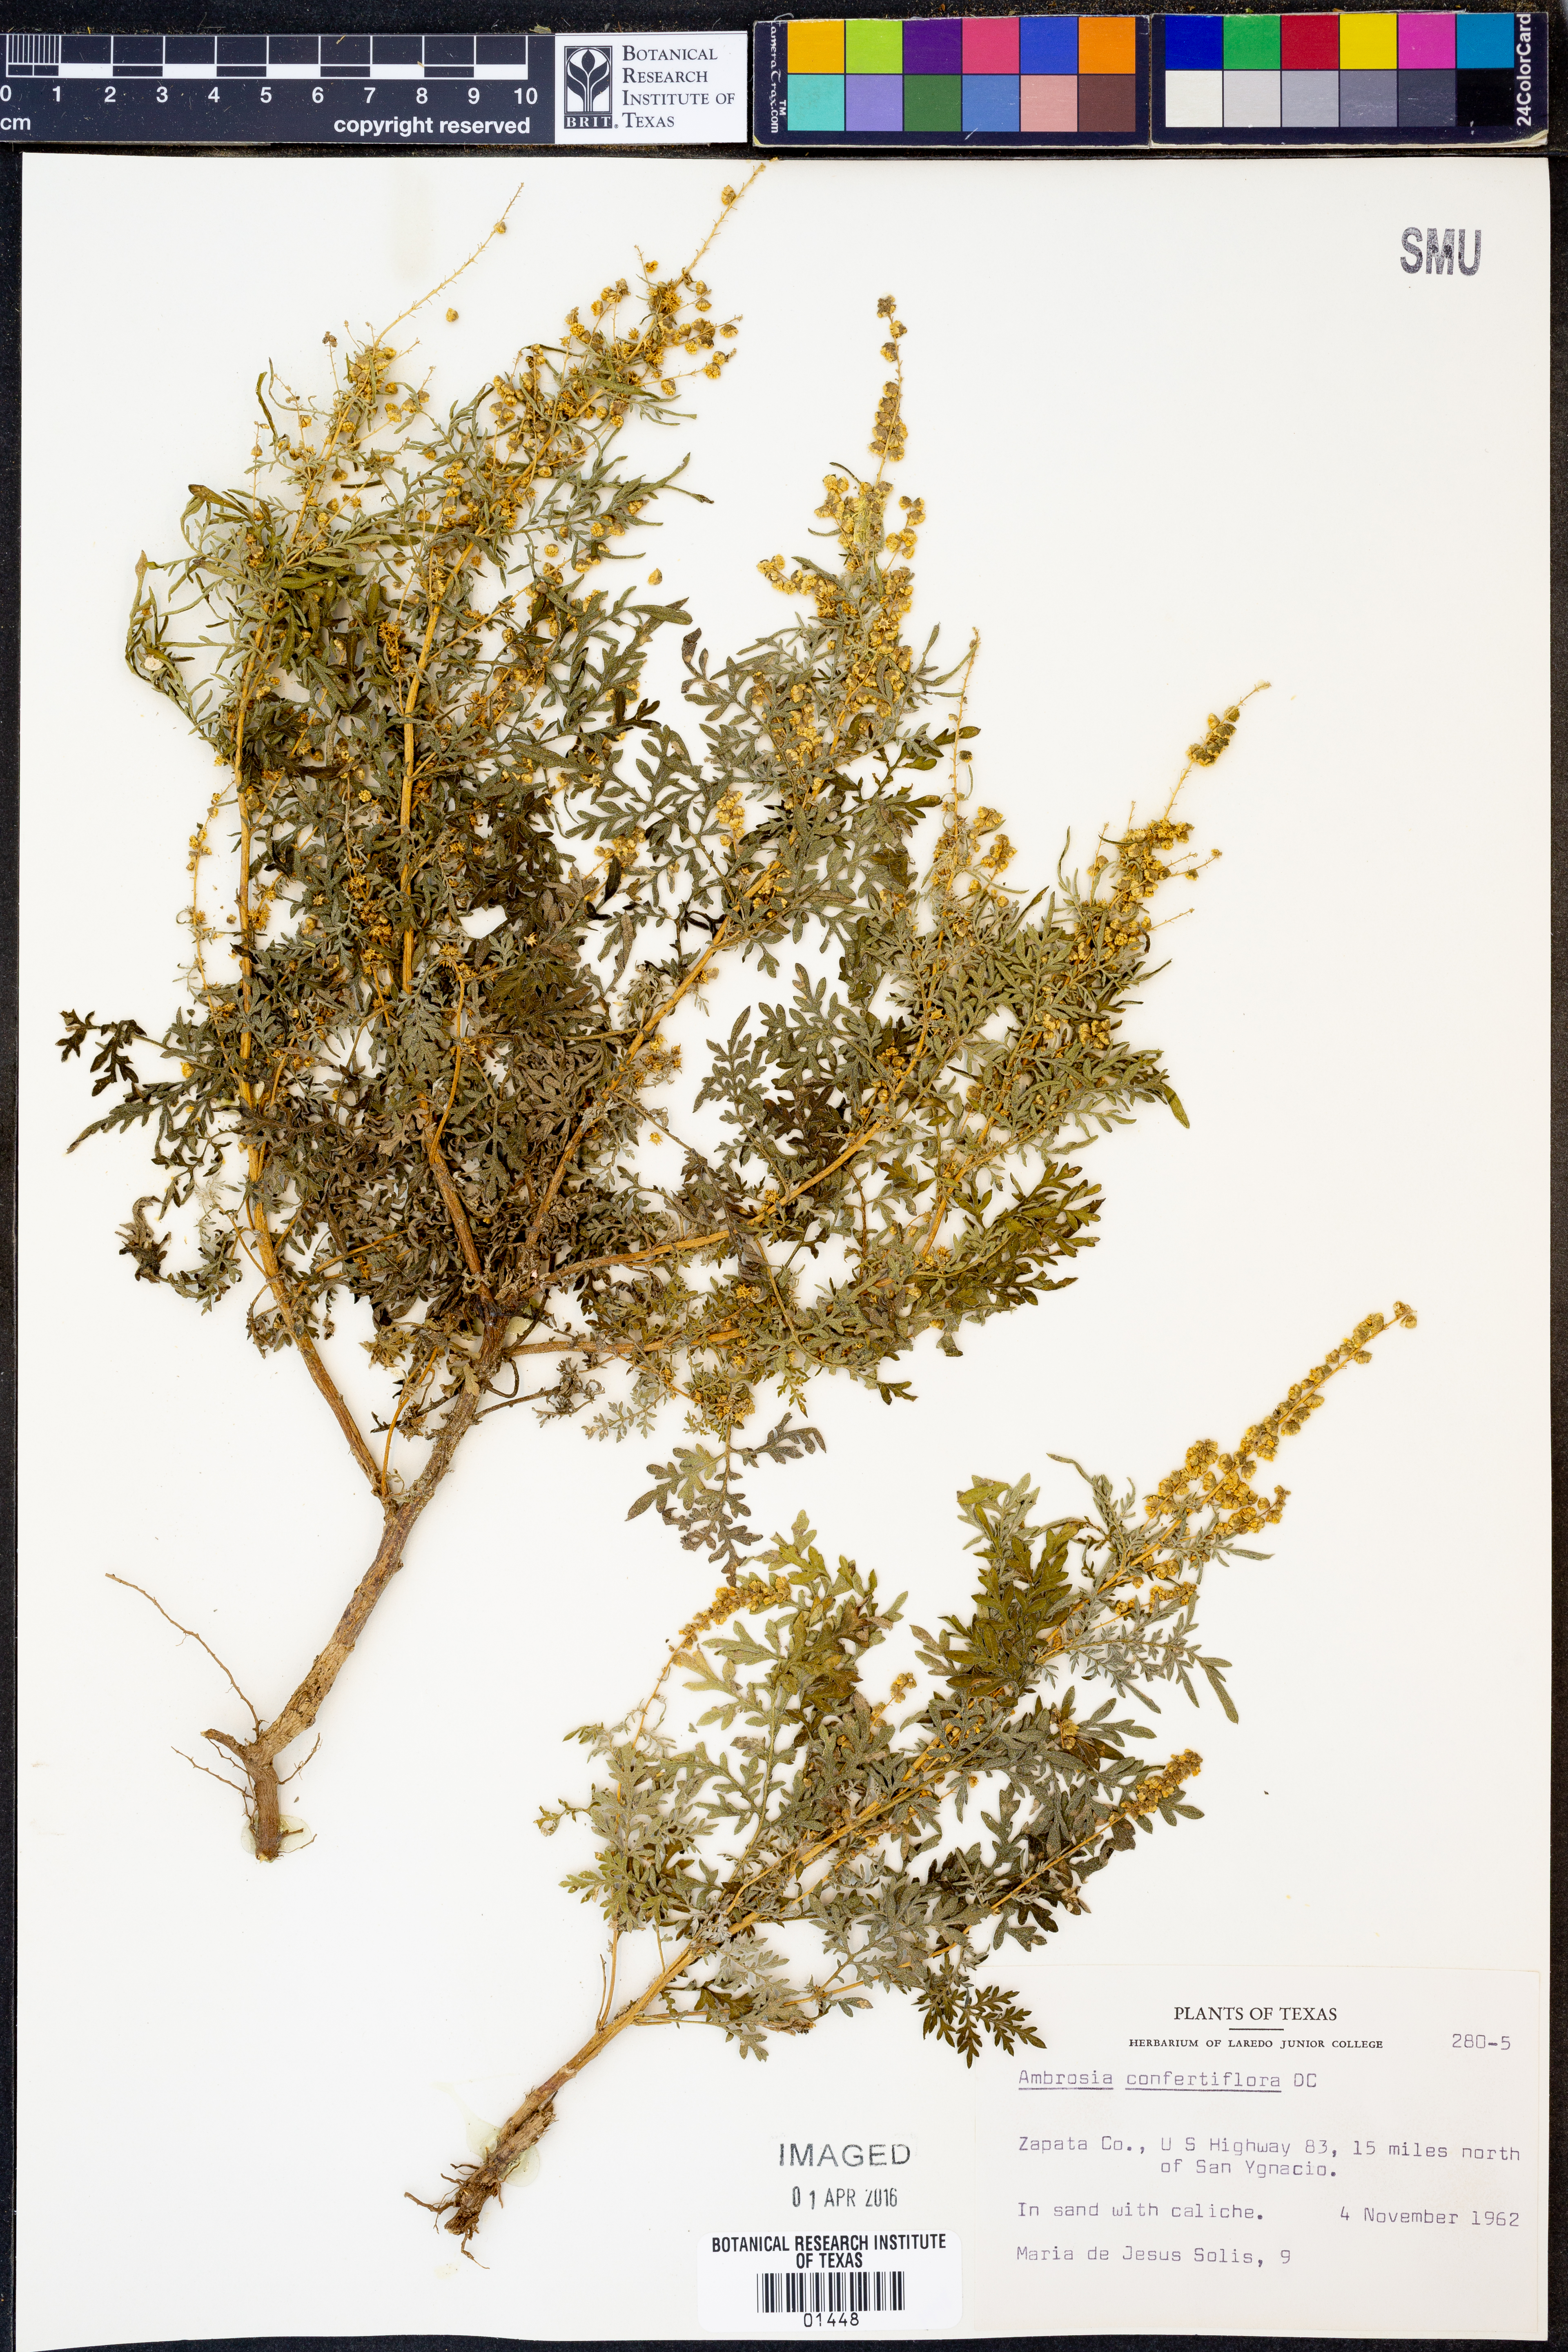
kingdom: Plantae
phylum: Tracheophyta
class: Magnoliopsida
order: Asterales
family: Asteraceae
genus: Ambrosia
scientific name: Ambrosia confertiflora
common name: Bur ragweed
